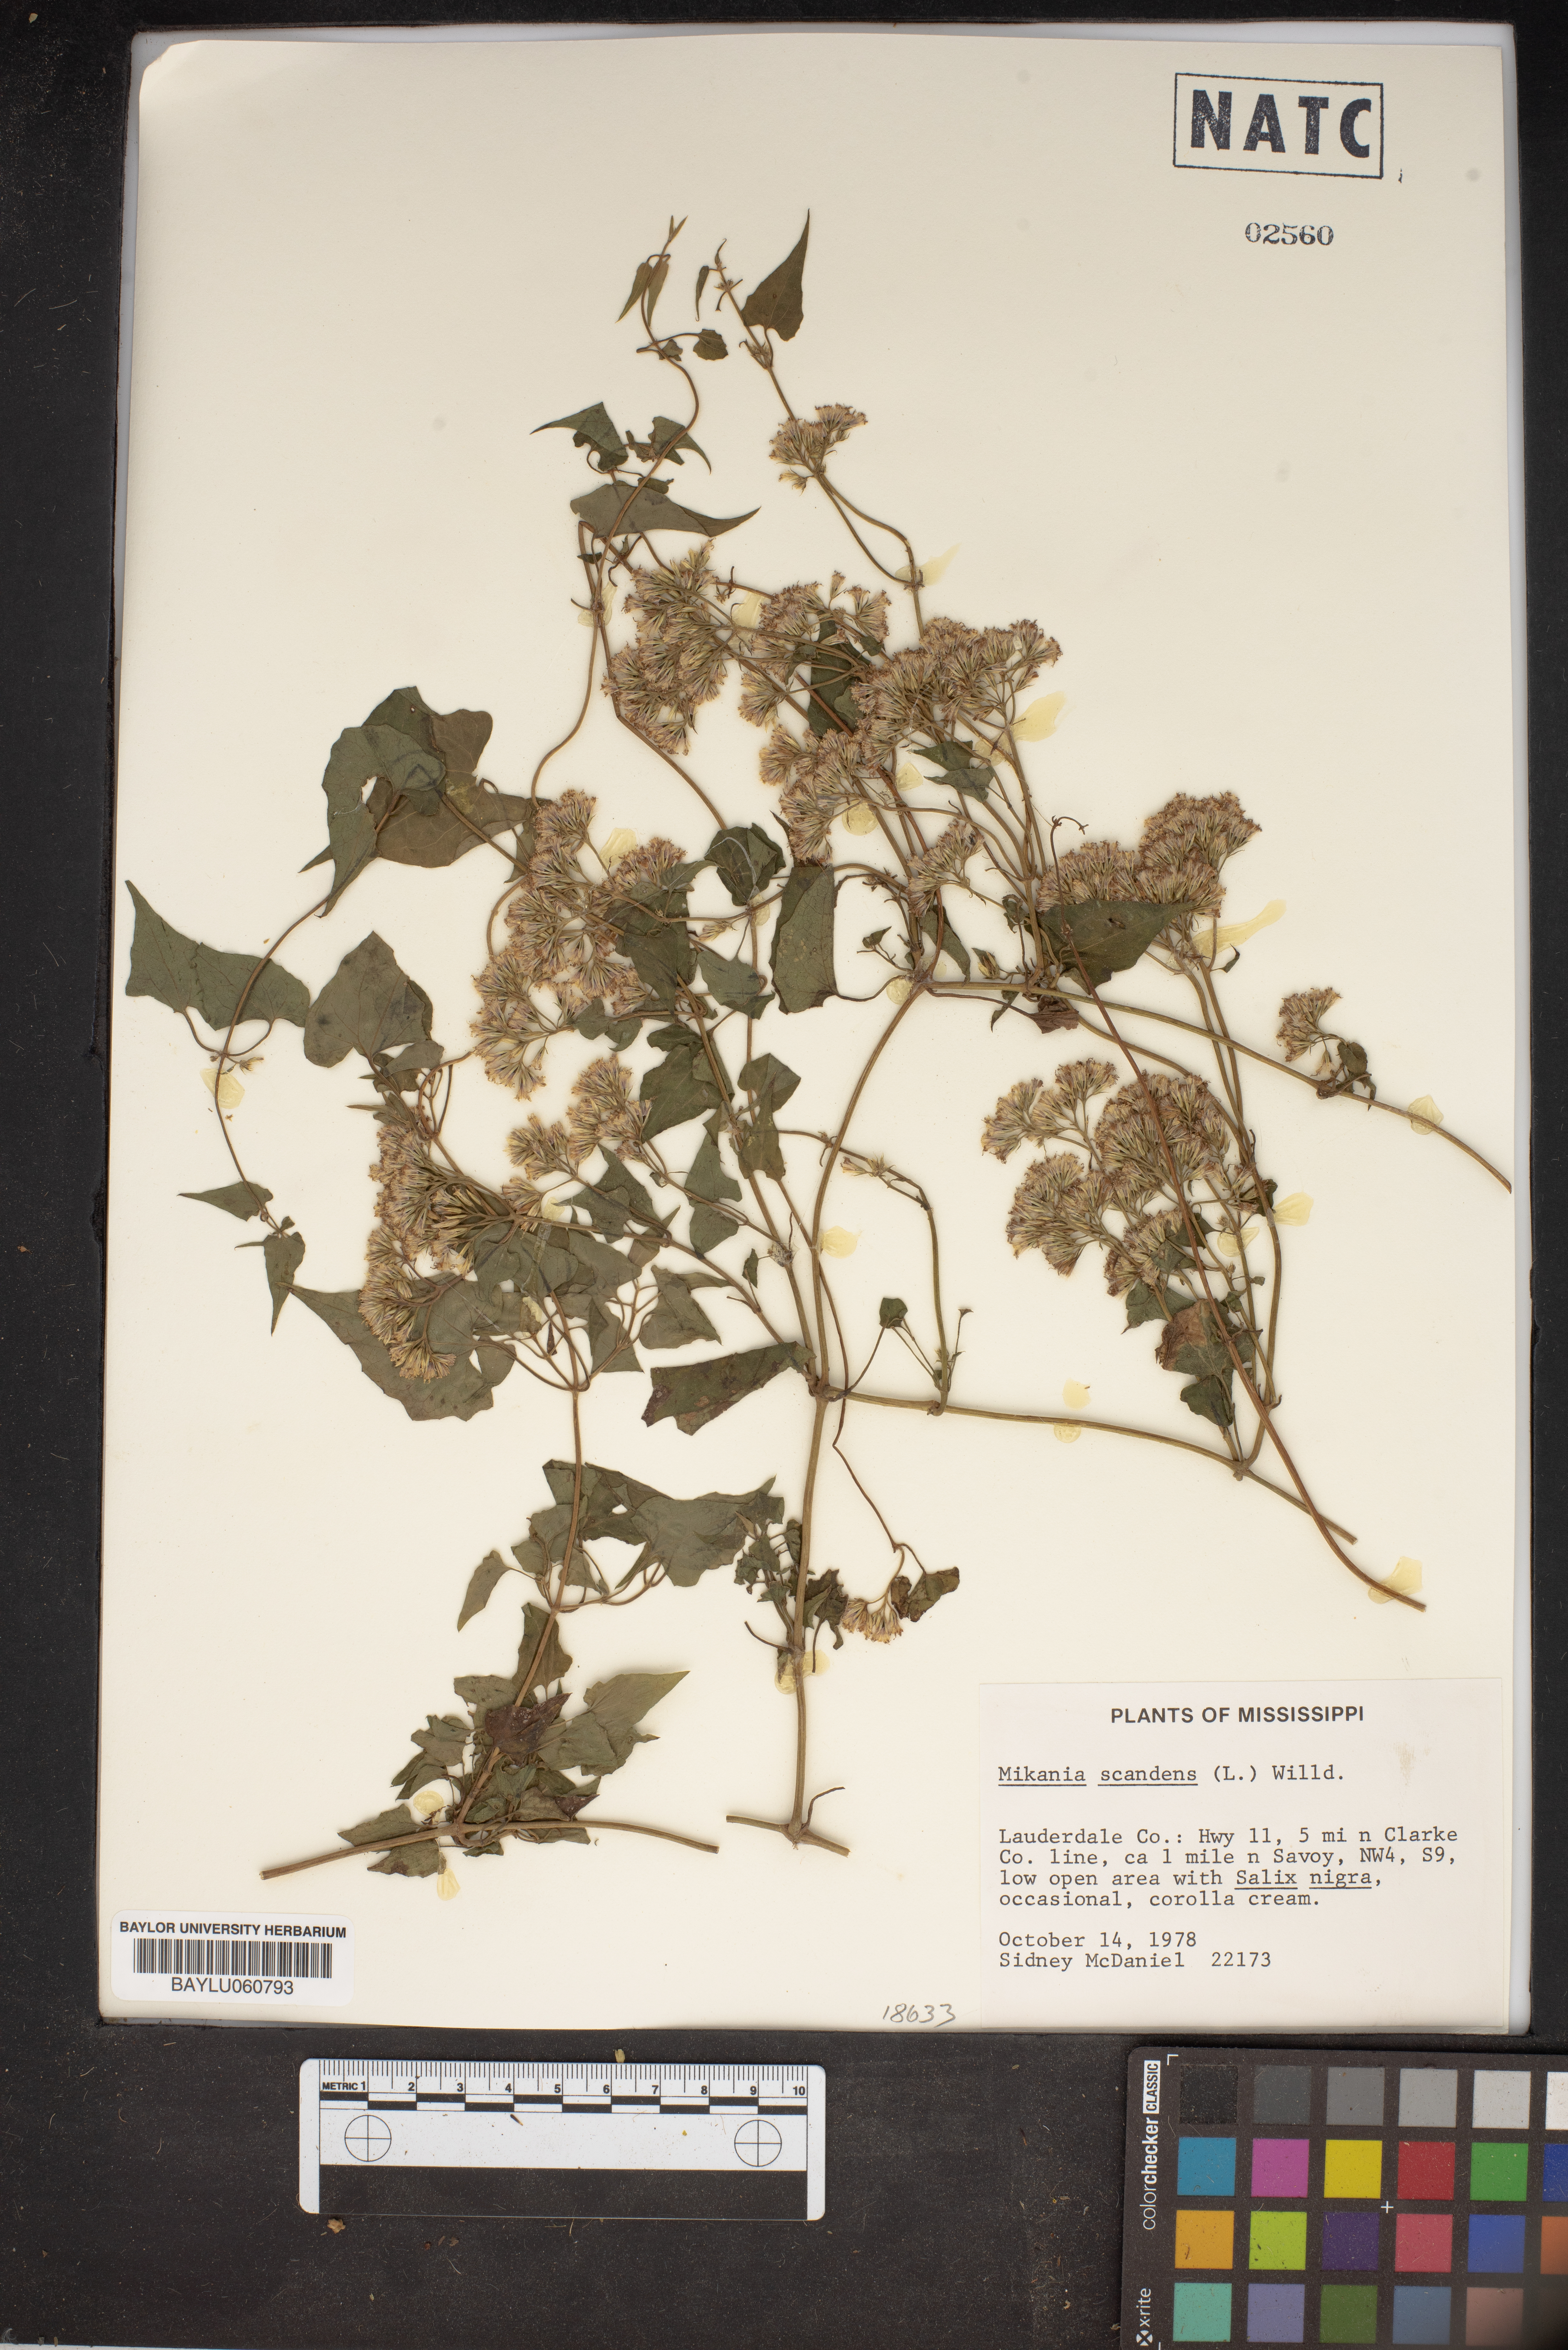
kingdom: Plantae
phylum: Tracheophyta
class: Magnoliopsida
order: Asterales
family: Asteraceae
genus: Mikania
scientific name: Mikania scandens
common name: Climbing hempvine
